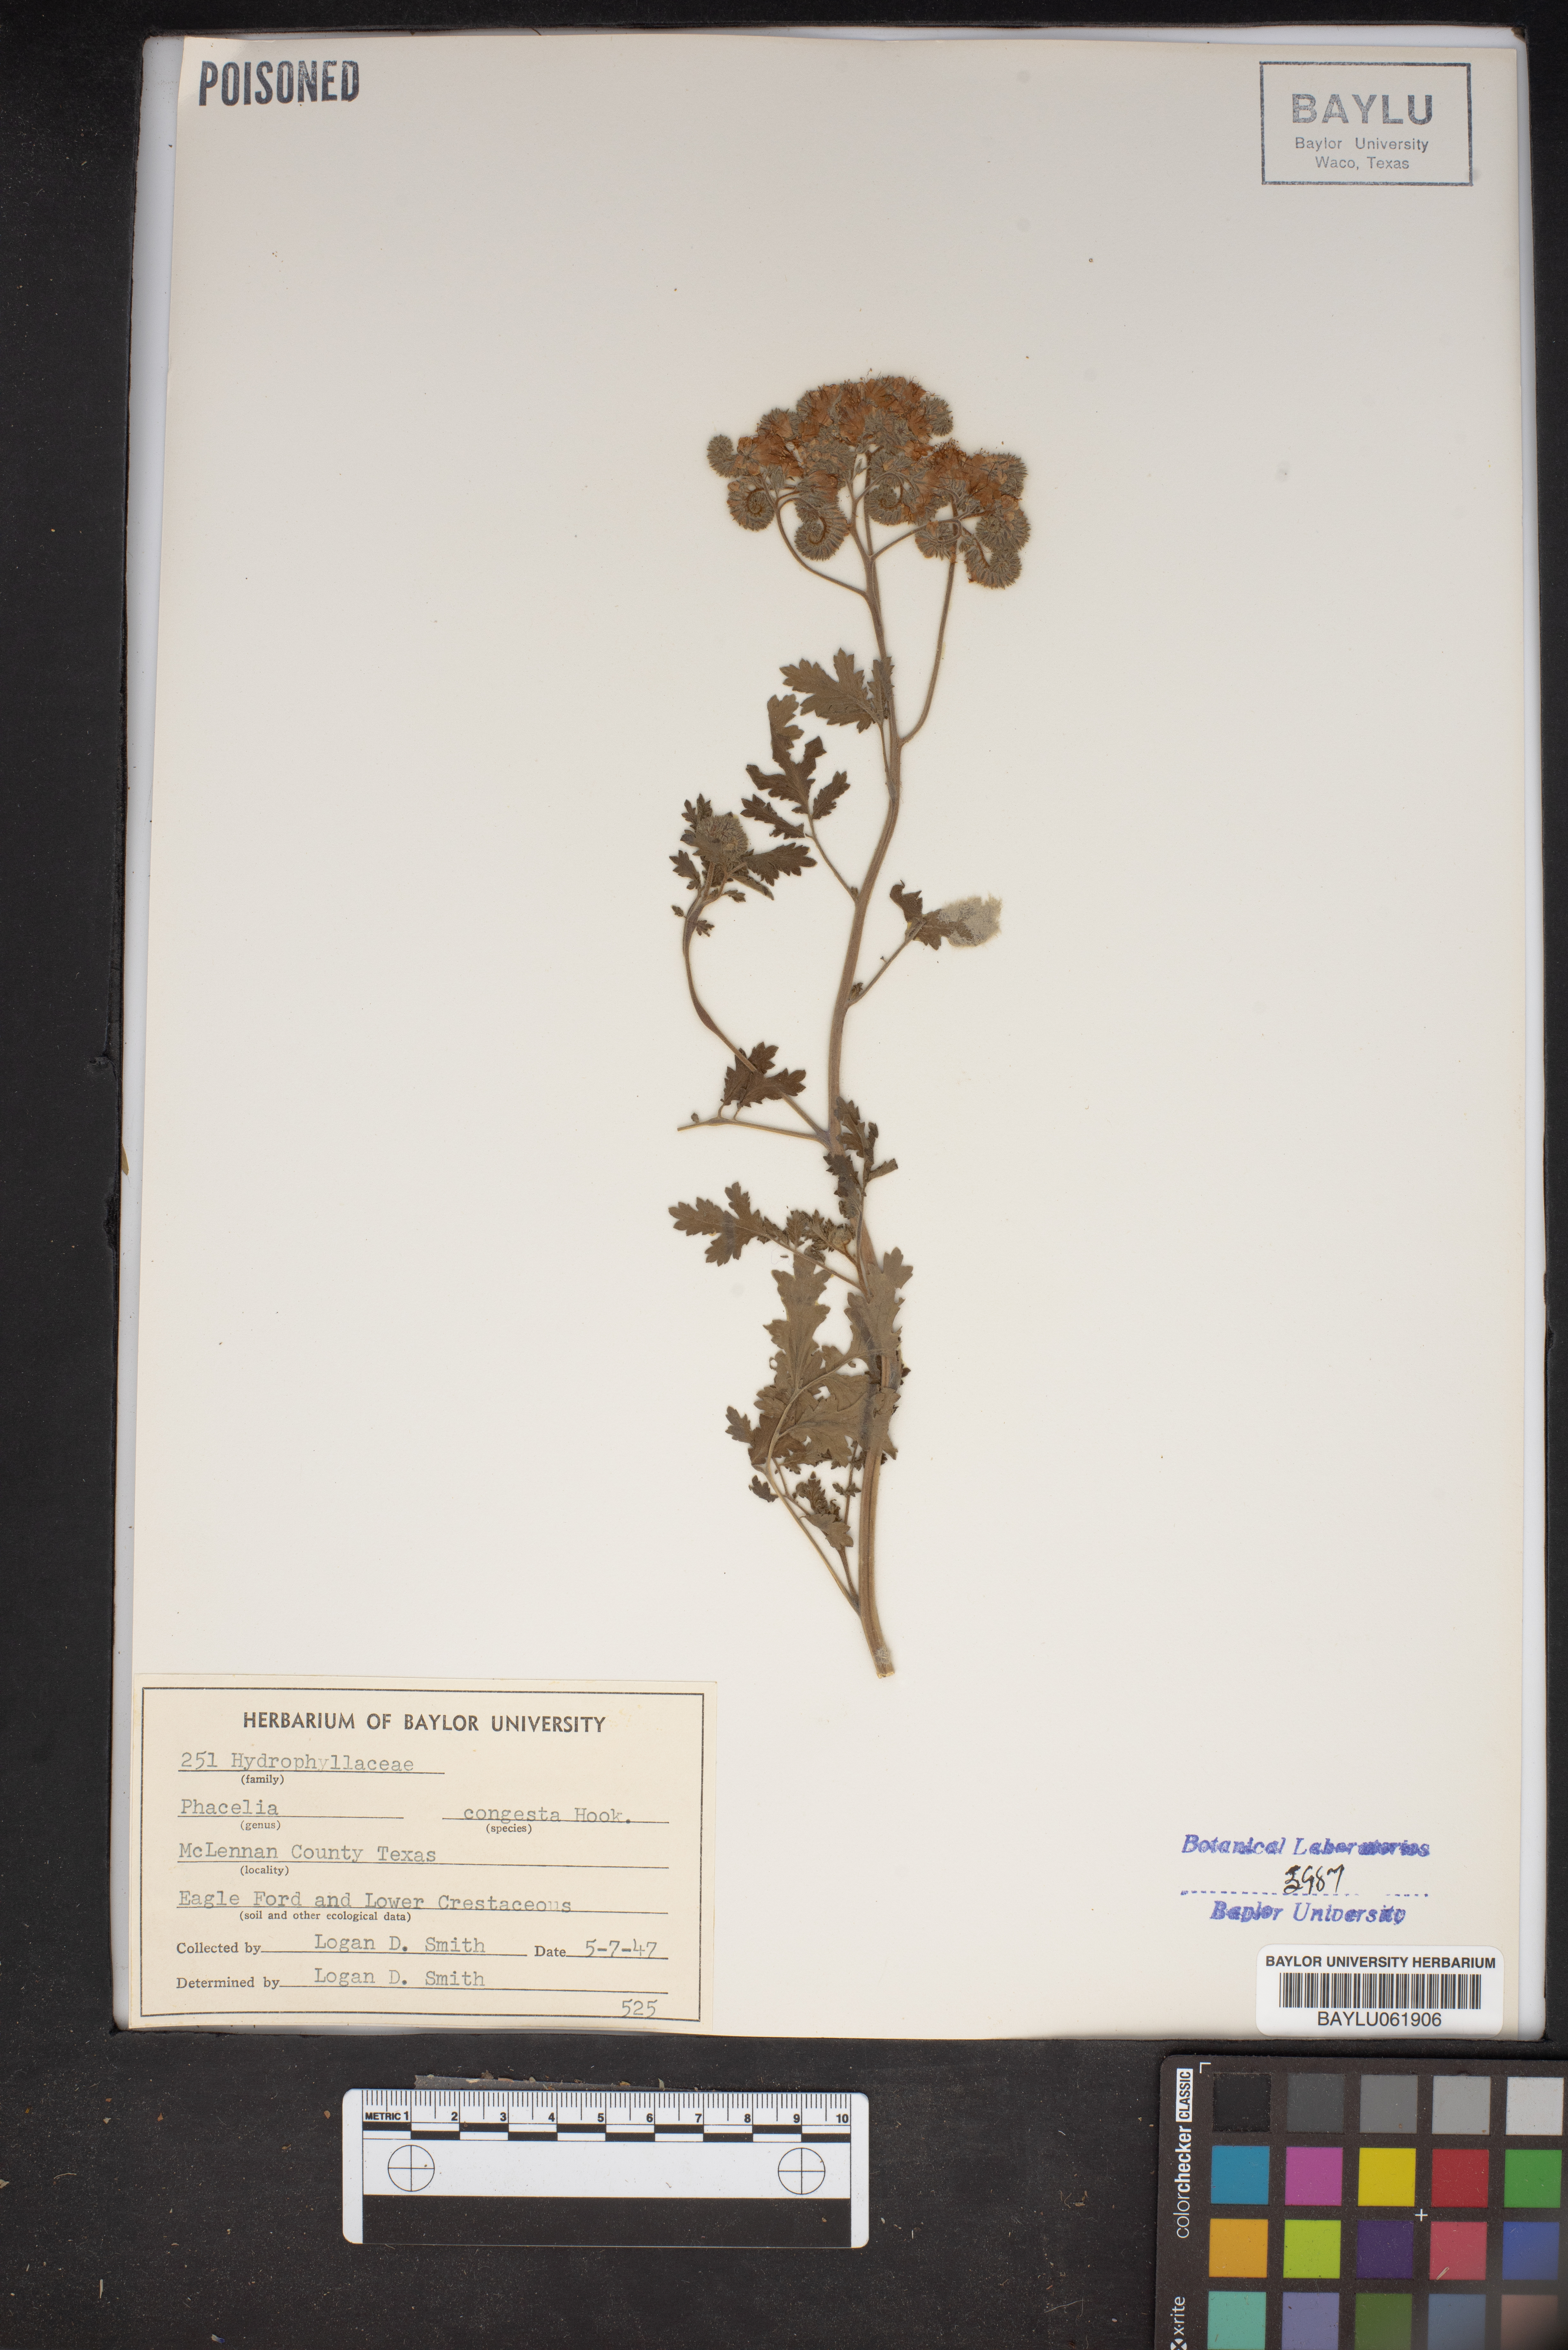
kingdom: Plantae
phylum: Tracheophyta
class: Magnoliopsida
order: Boraginales
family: Hydrophyllaceae
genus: Phacelia
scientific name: Phacelia congesta
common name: Blue curls
